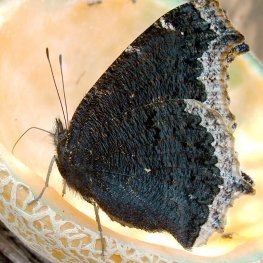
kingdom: Animalia
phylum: Arthropoda
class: Insecta
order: Lepidoptera
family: Nymphalidae
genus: Nymphalis
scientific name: Nymphalis antiopa
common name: Mourning Cloak
